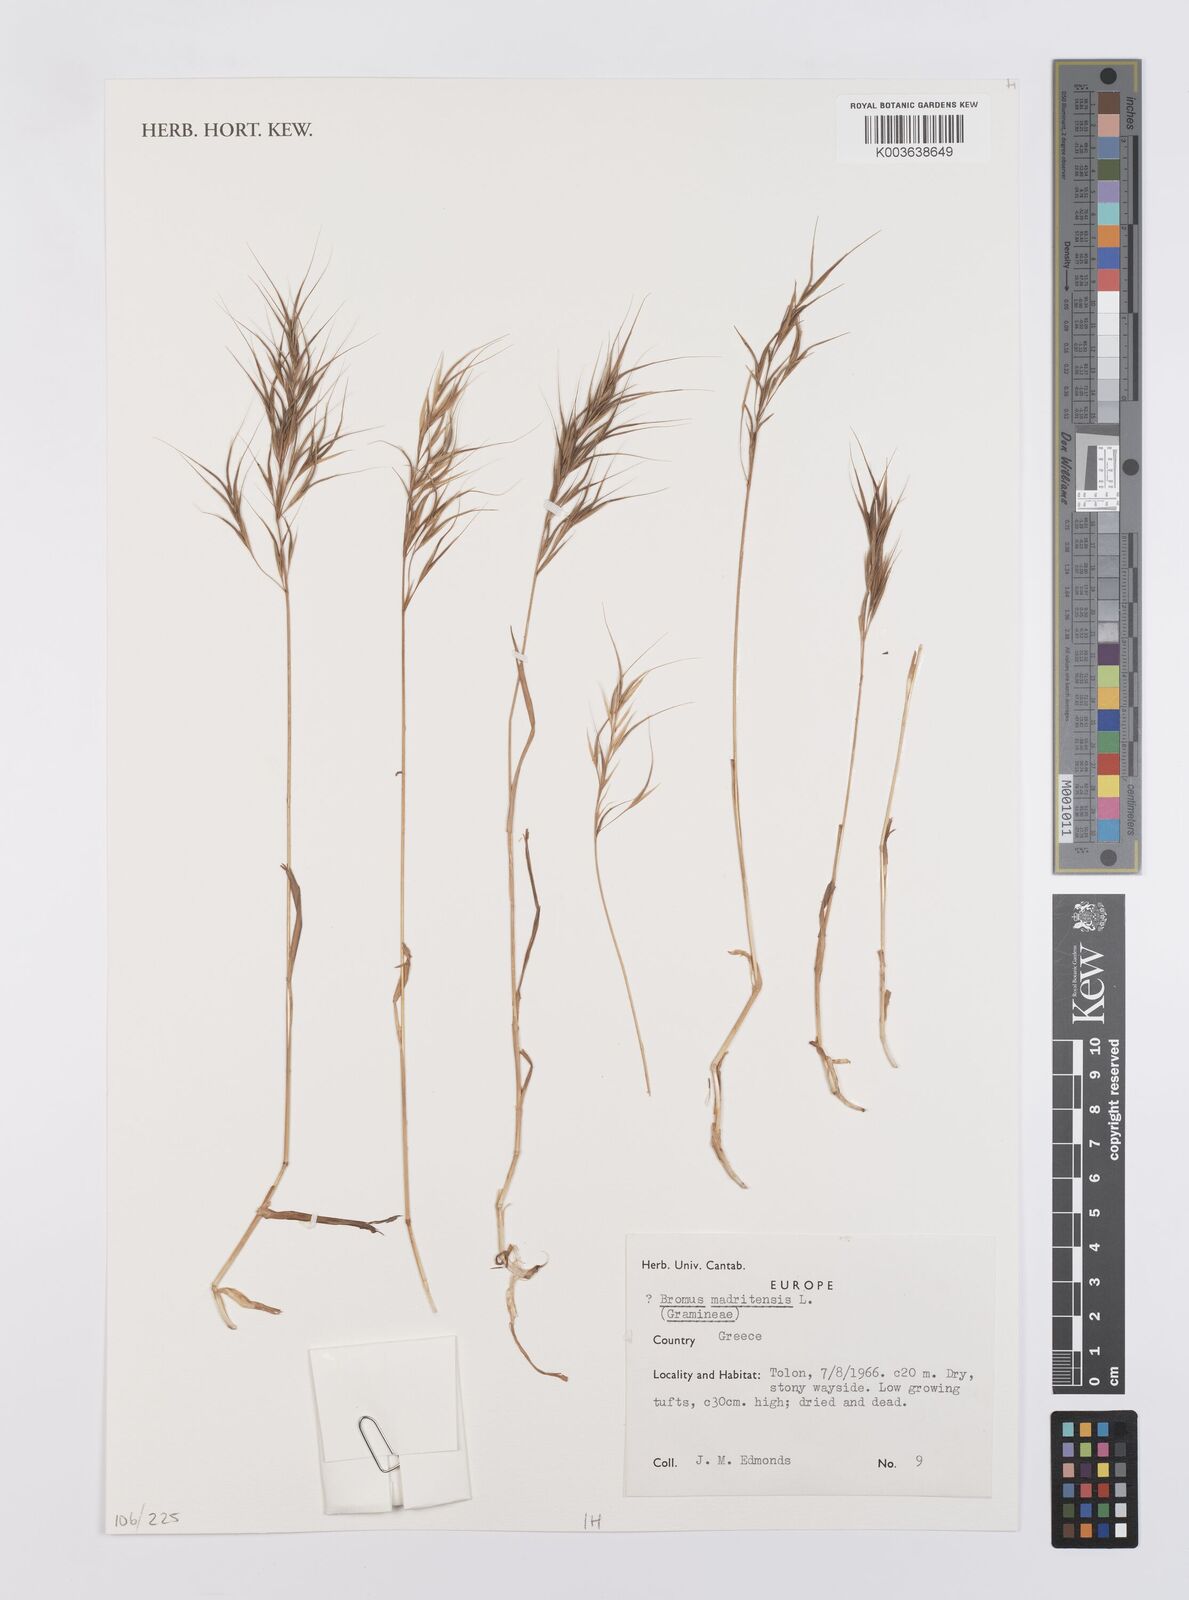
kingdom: Plantae
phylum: Tracheophyta
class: Liliopsida
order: Poales
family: Poaceae
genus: Bromus
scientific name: Bromus madritensis
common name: Compact brome
